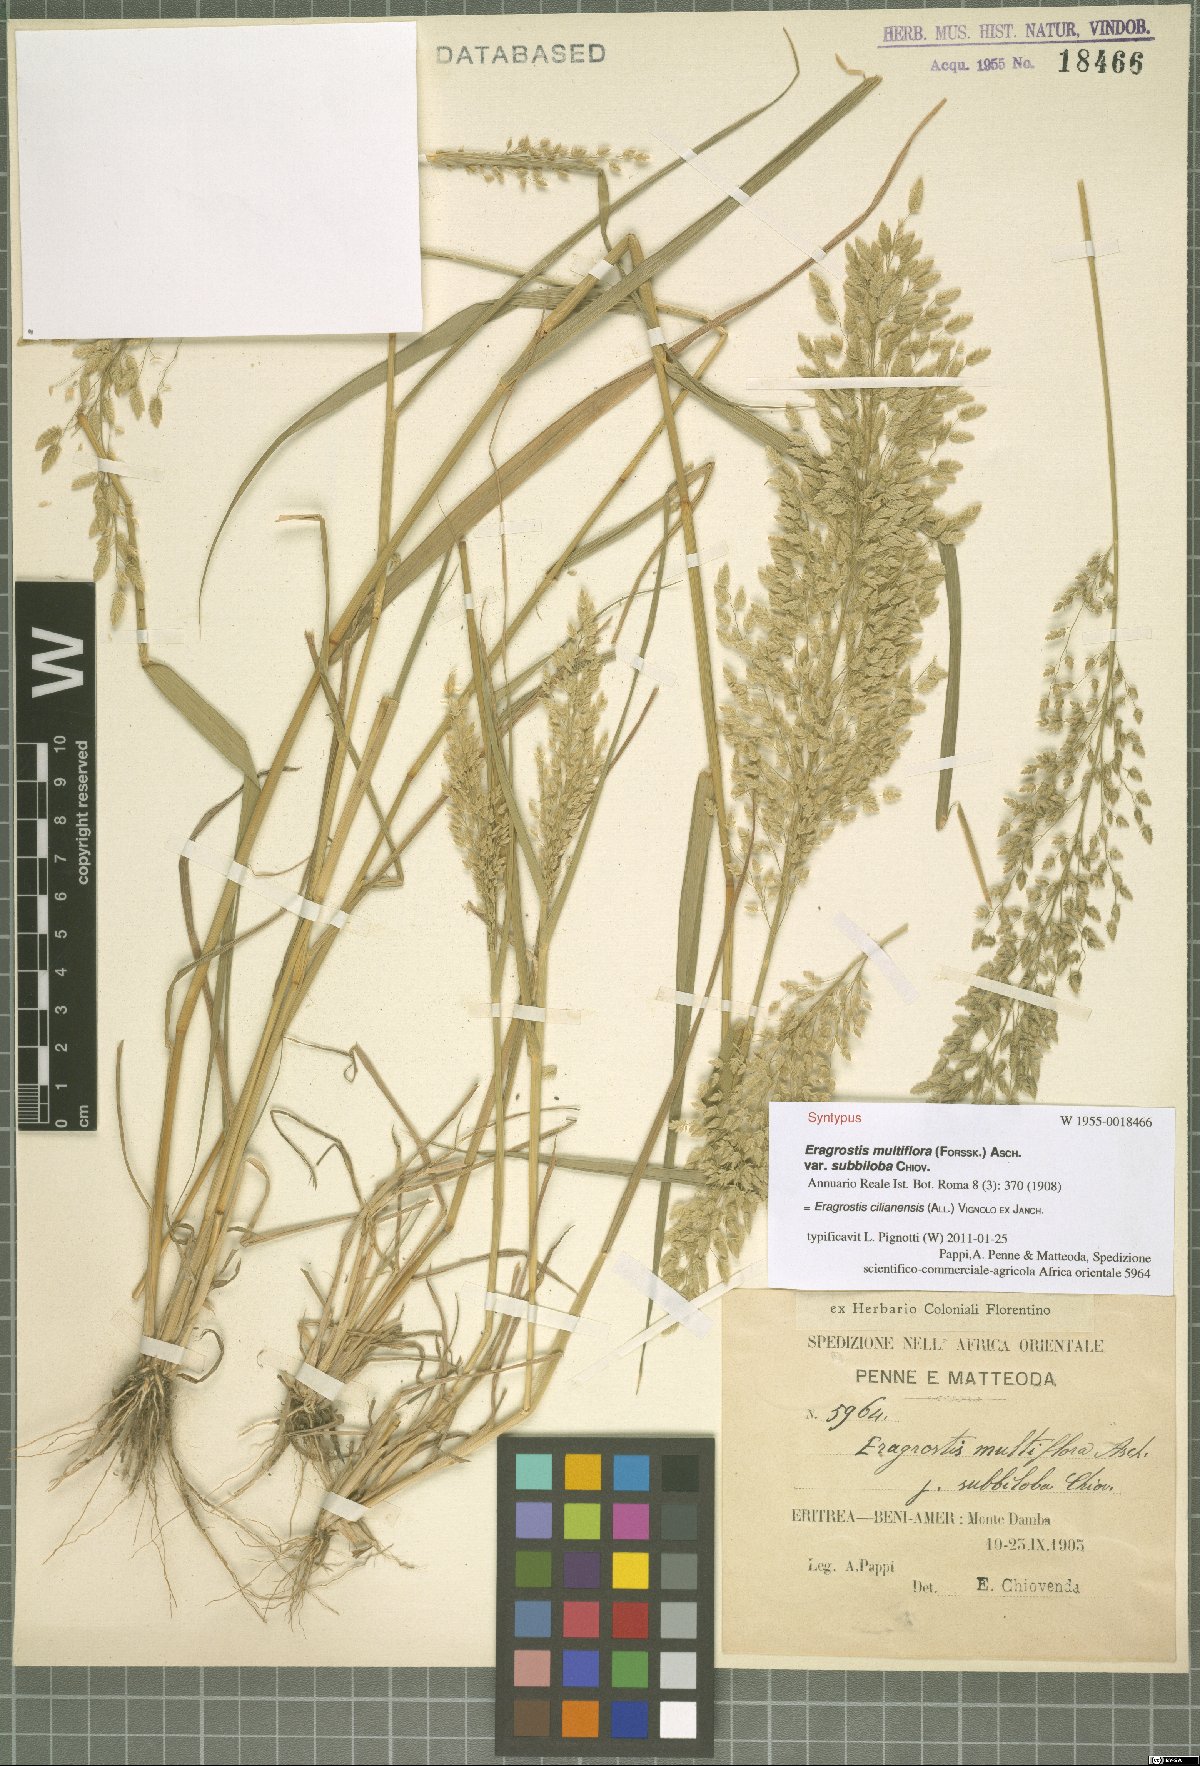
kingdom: Plantae
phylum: Tracheophyta
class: Liliopsida
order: Poales
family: Poaceae
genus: Eragrostis
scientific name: Eragrostis cilianensis
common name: Stinkgrass
